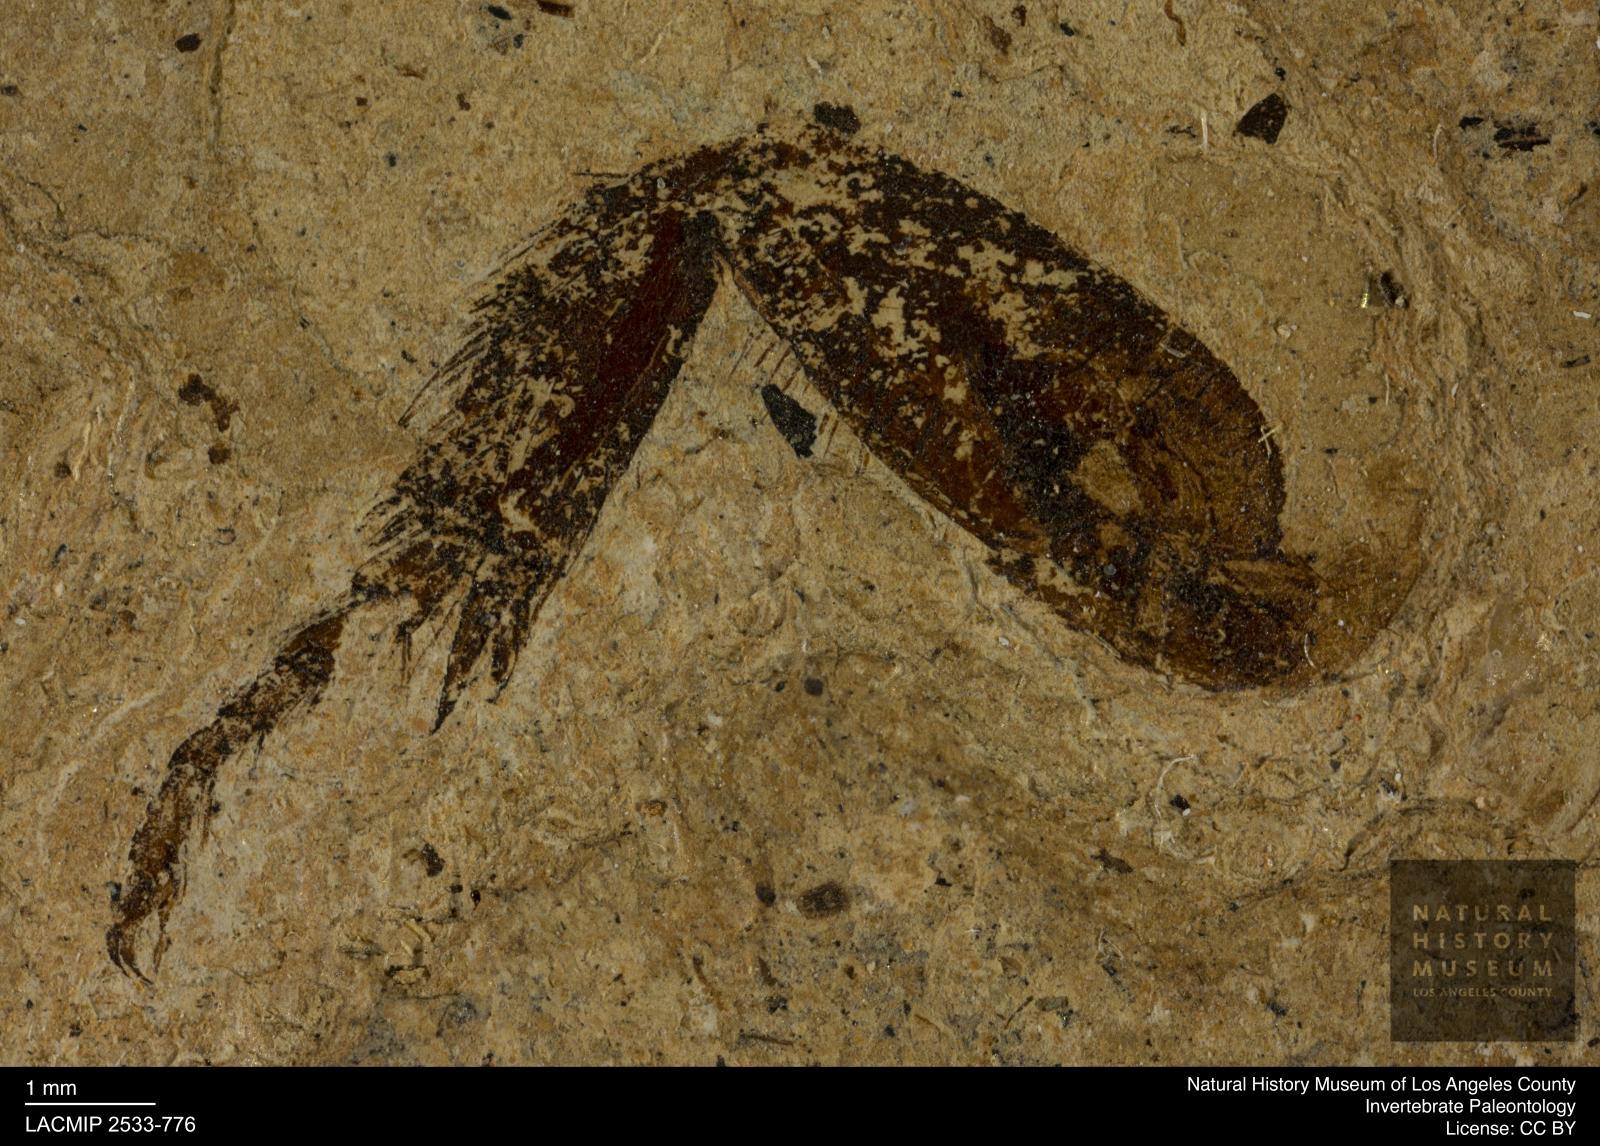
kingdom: Animalia
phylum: Arthropoda
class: Insecta
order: Coleoptera
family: Geotrupidae
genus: Geotrupes
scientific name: Geotrupes
